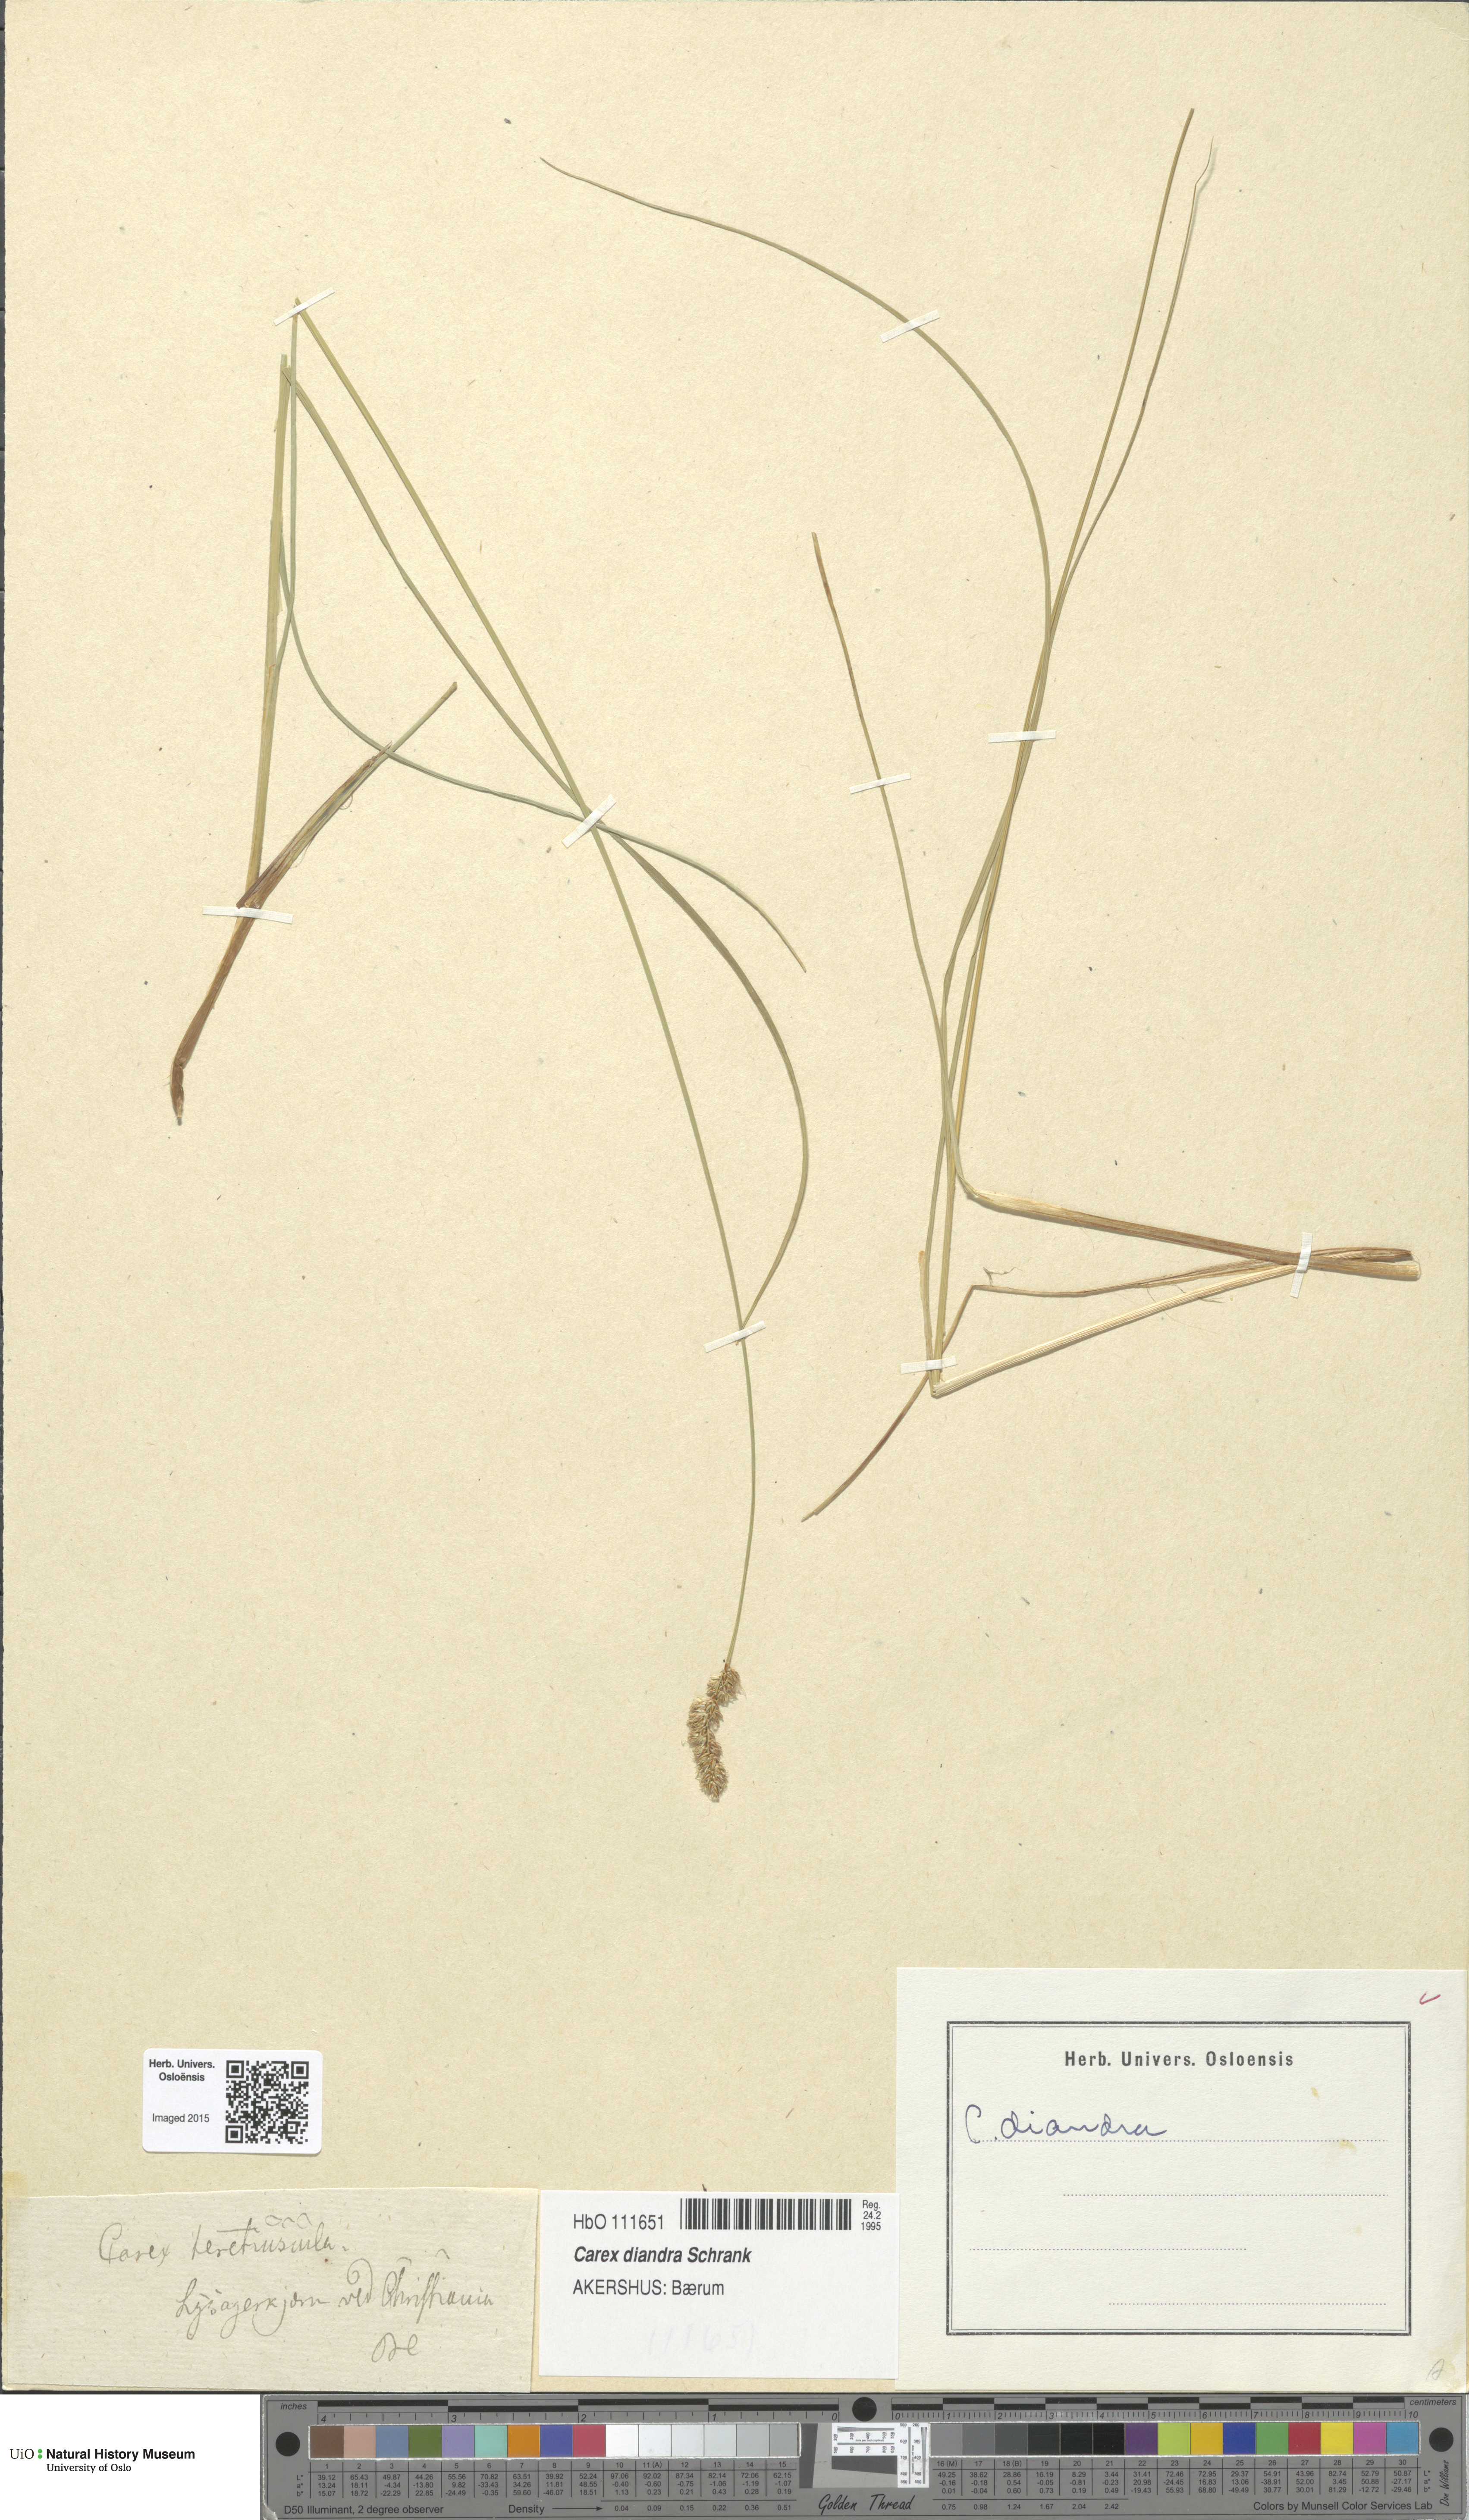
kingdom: Plantae
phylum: Tracheophyta
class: Liliopsida
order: Poales
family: Cyperaceae
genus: Carex
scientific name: Carex diandra
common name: Lesser tussock-sedge
